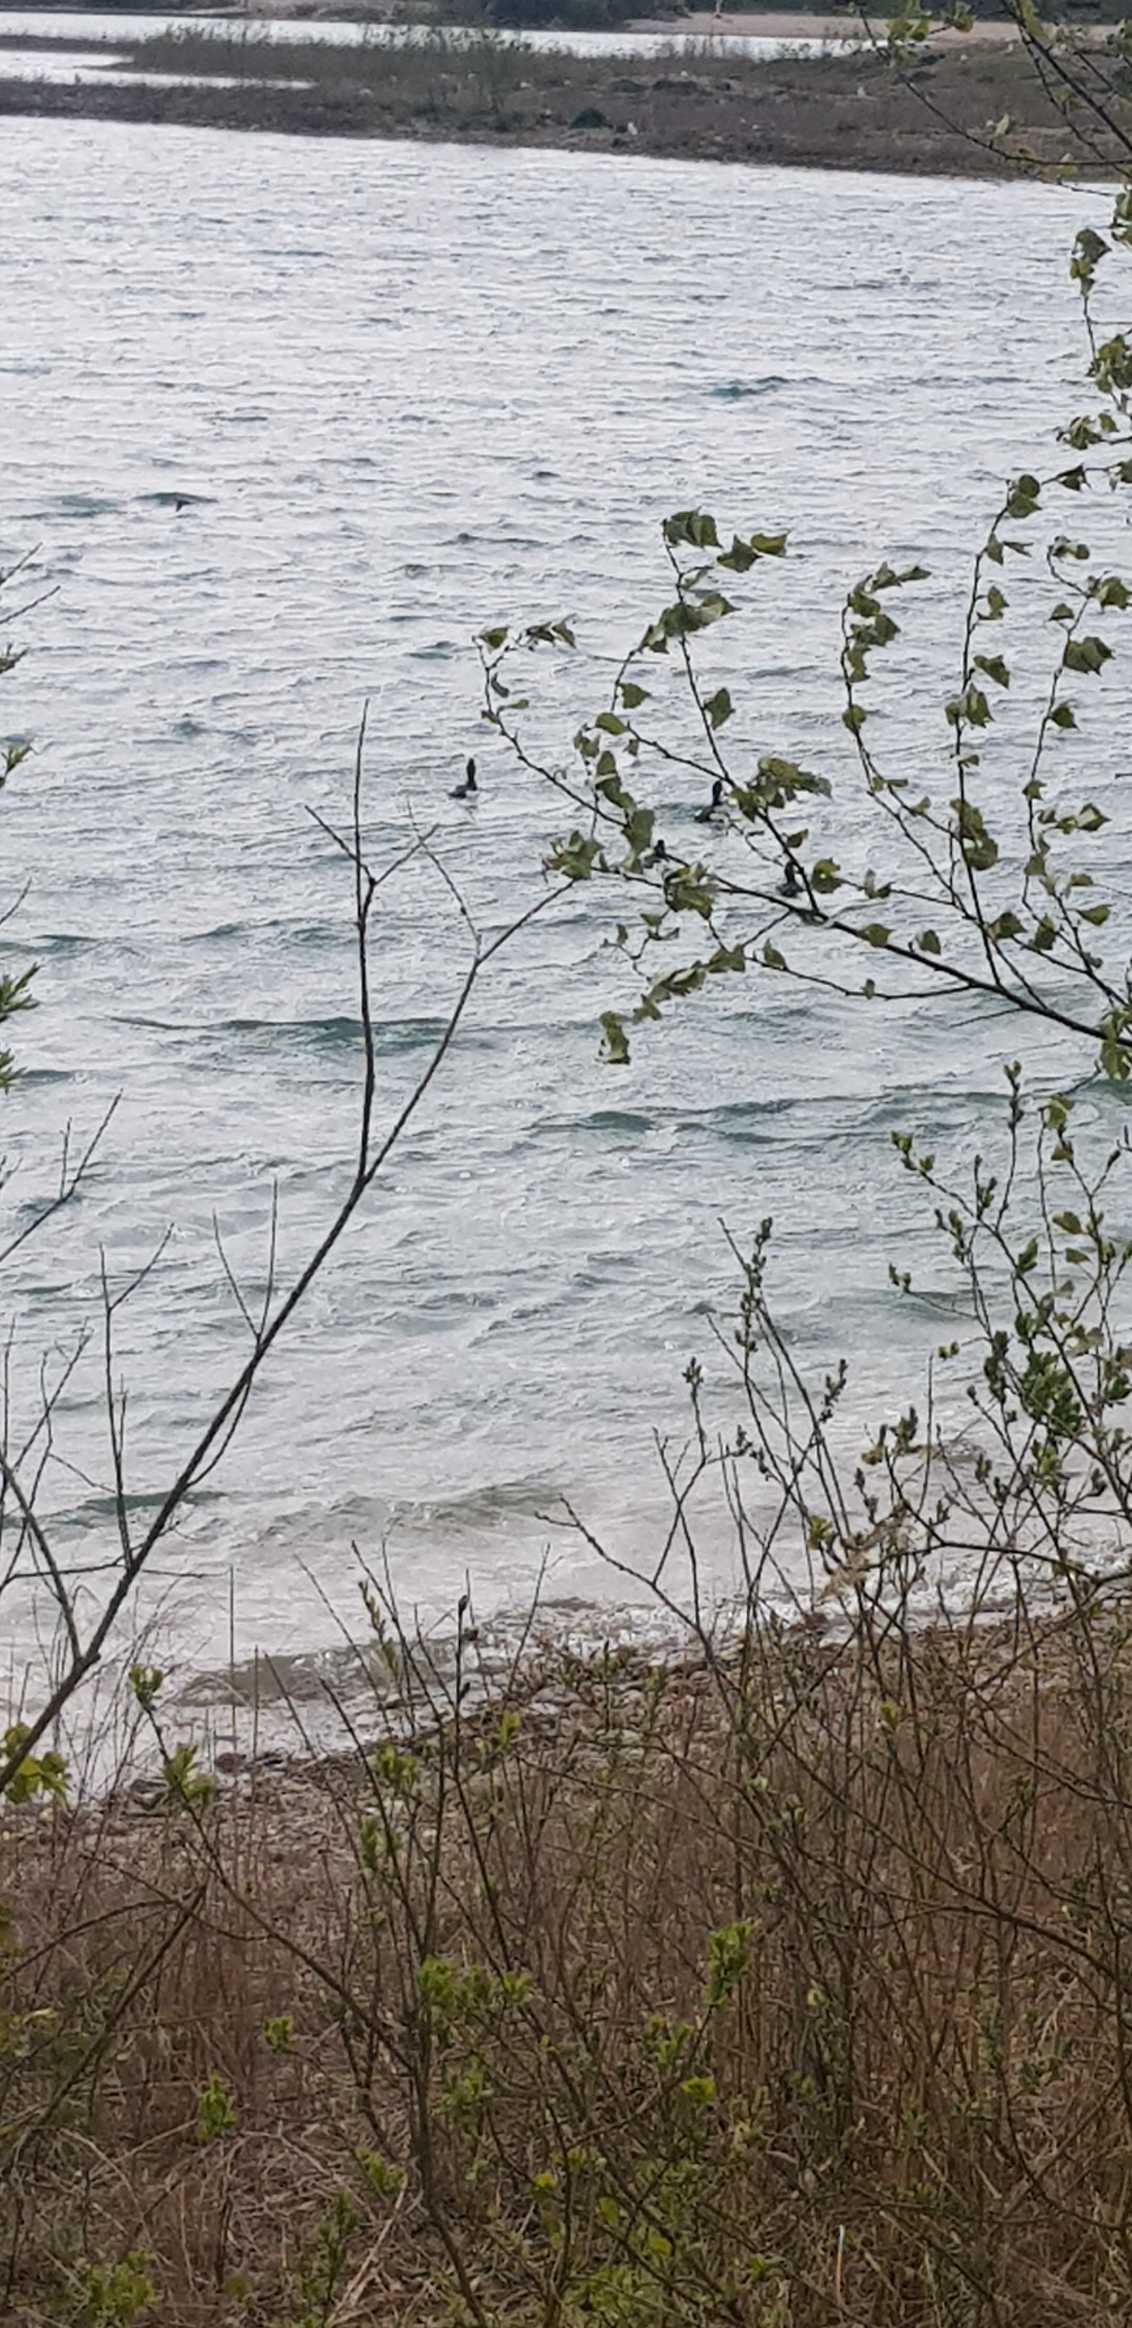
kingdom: Animalia
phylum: Chordata
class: Aves
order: Anseriformes
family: Anatidae
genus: Aythya
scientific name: Aythya fuligula
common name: Troldand
